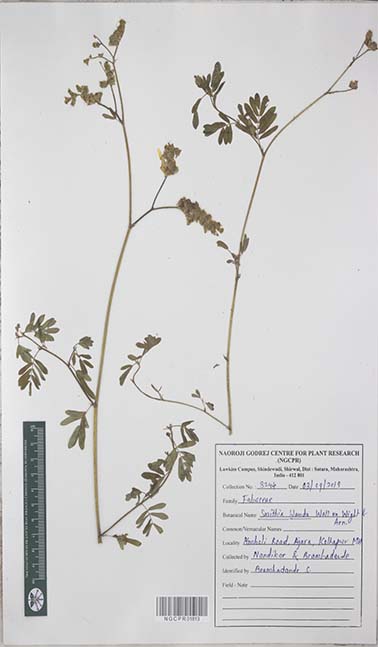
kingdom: Plantae
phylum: Tracheophyta
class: Magnoliopsida
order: Fabales
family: Fabaceae
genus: Smithia
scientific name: Smithia blanda
